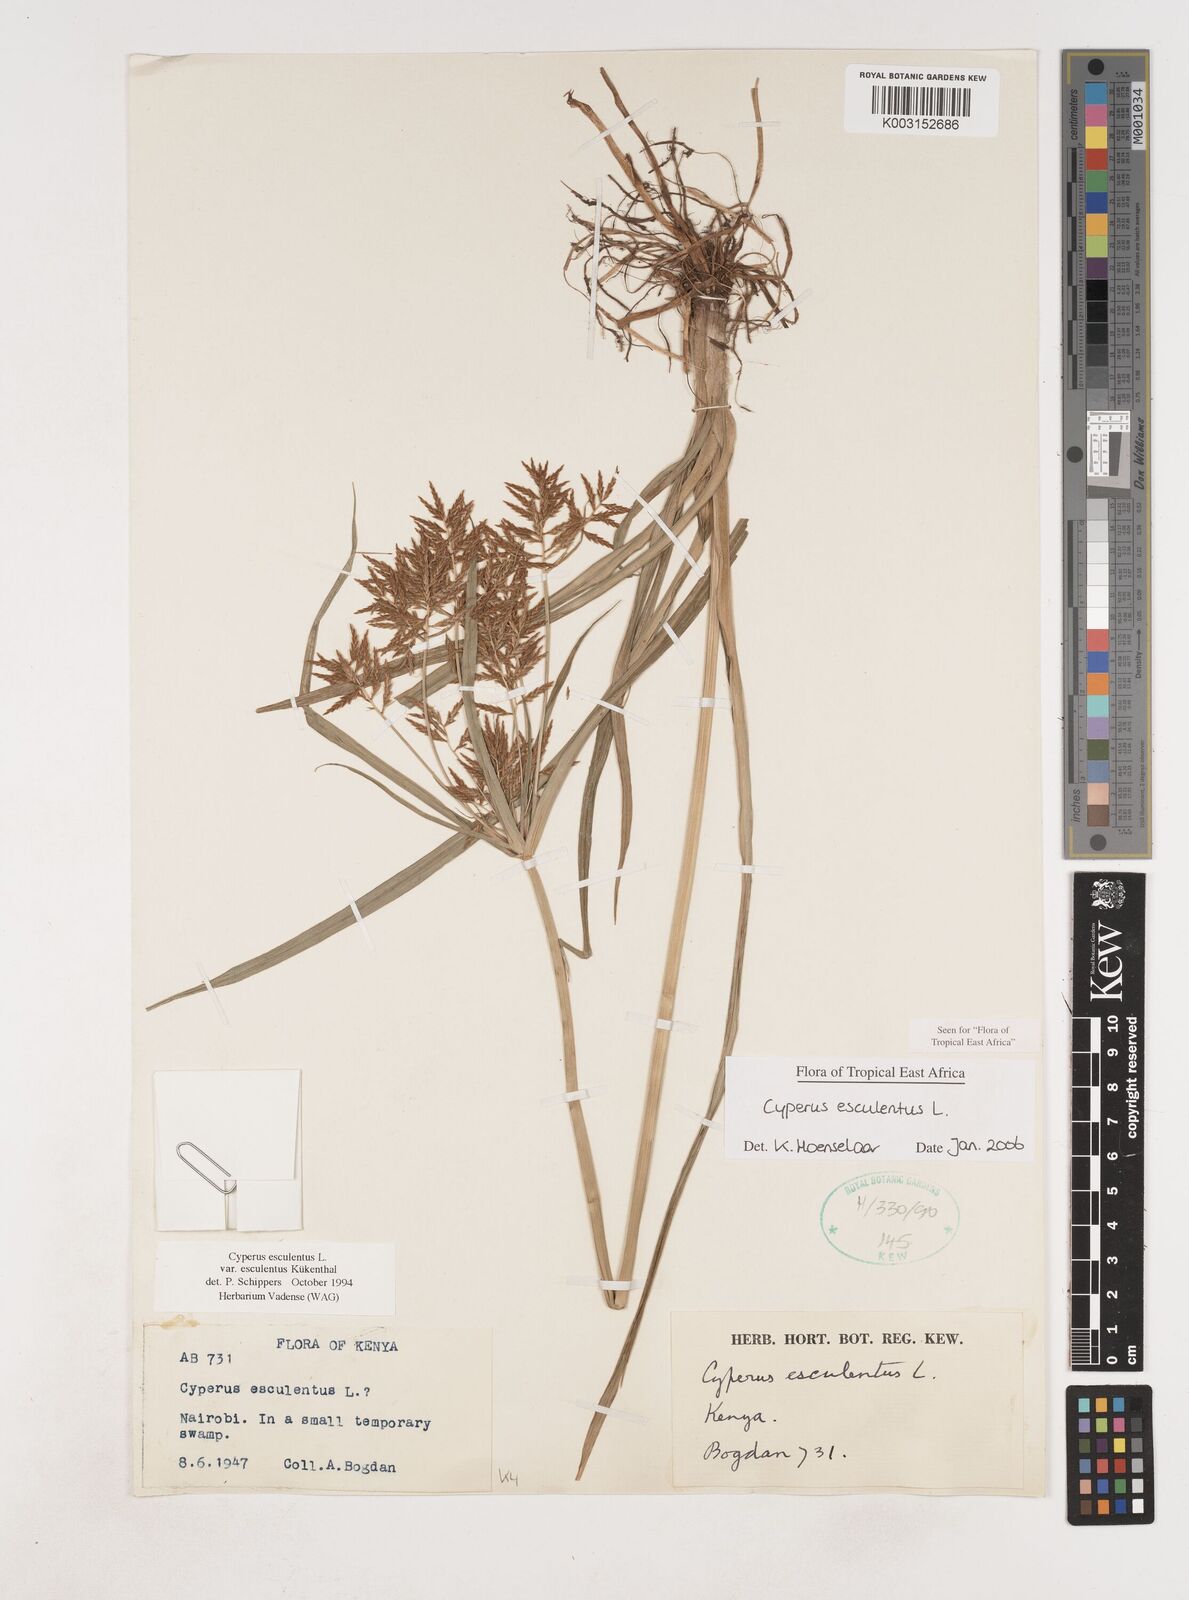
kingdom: Plantae
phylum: Tracheophyta
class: Liliopsida
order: Poales
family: Cyperaceae
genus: Cyperus
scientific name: Cyperus esculentus
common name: Yellow nutsedge
